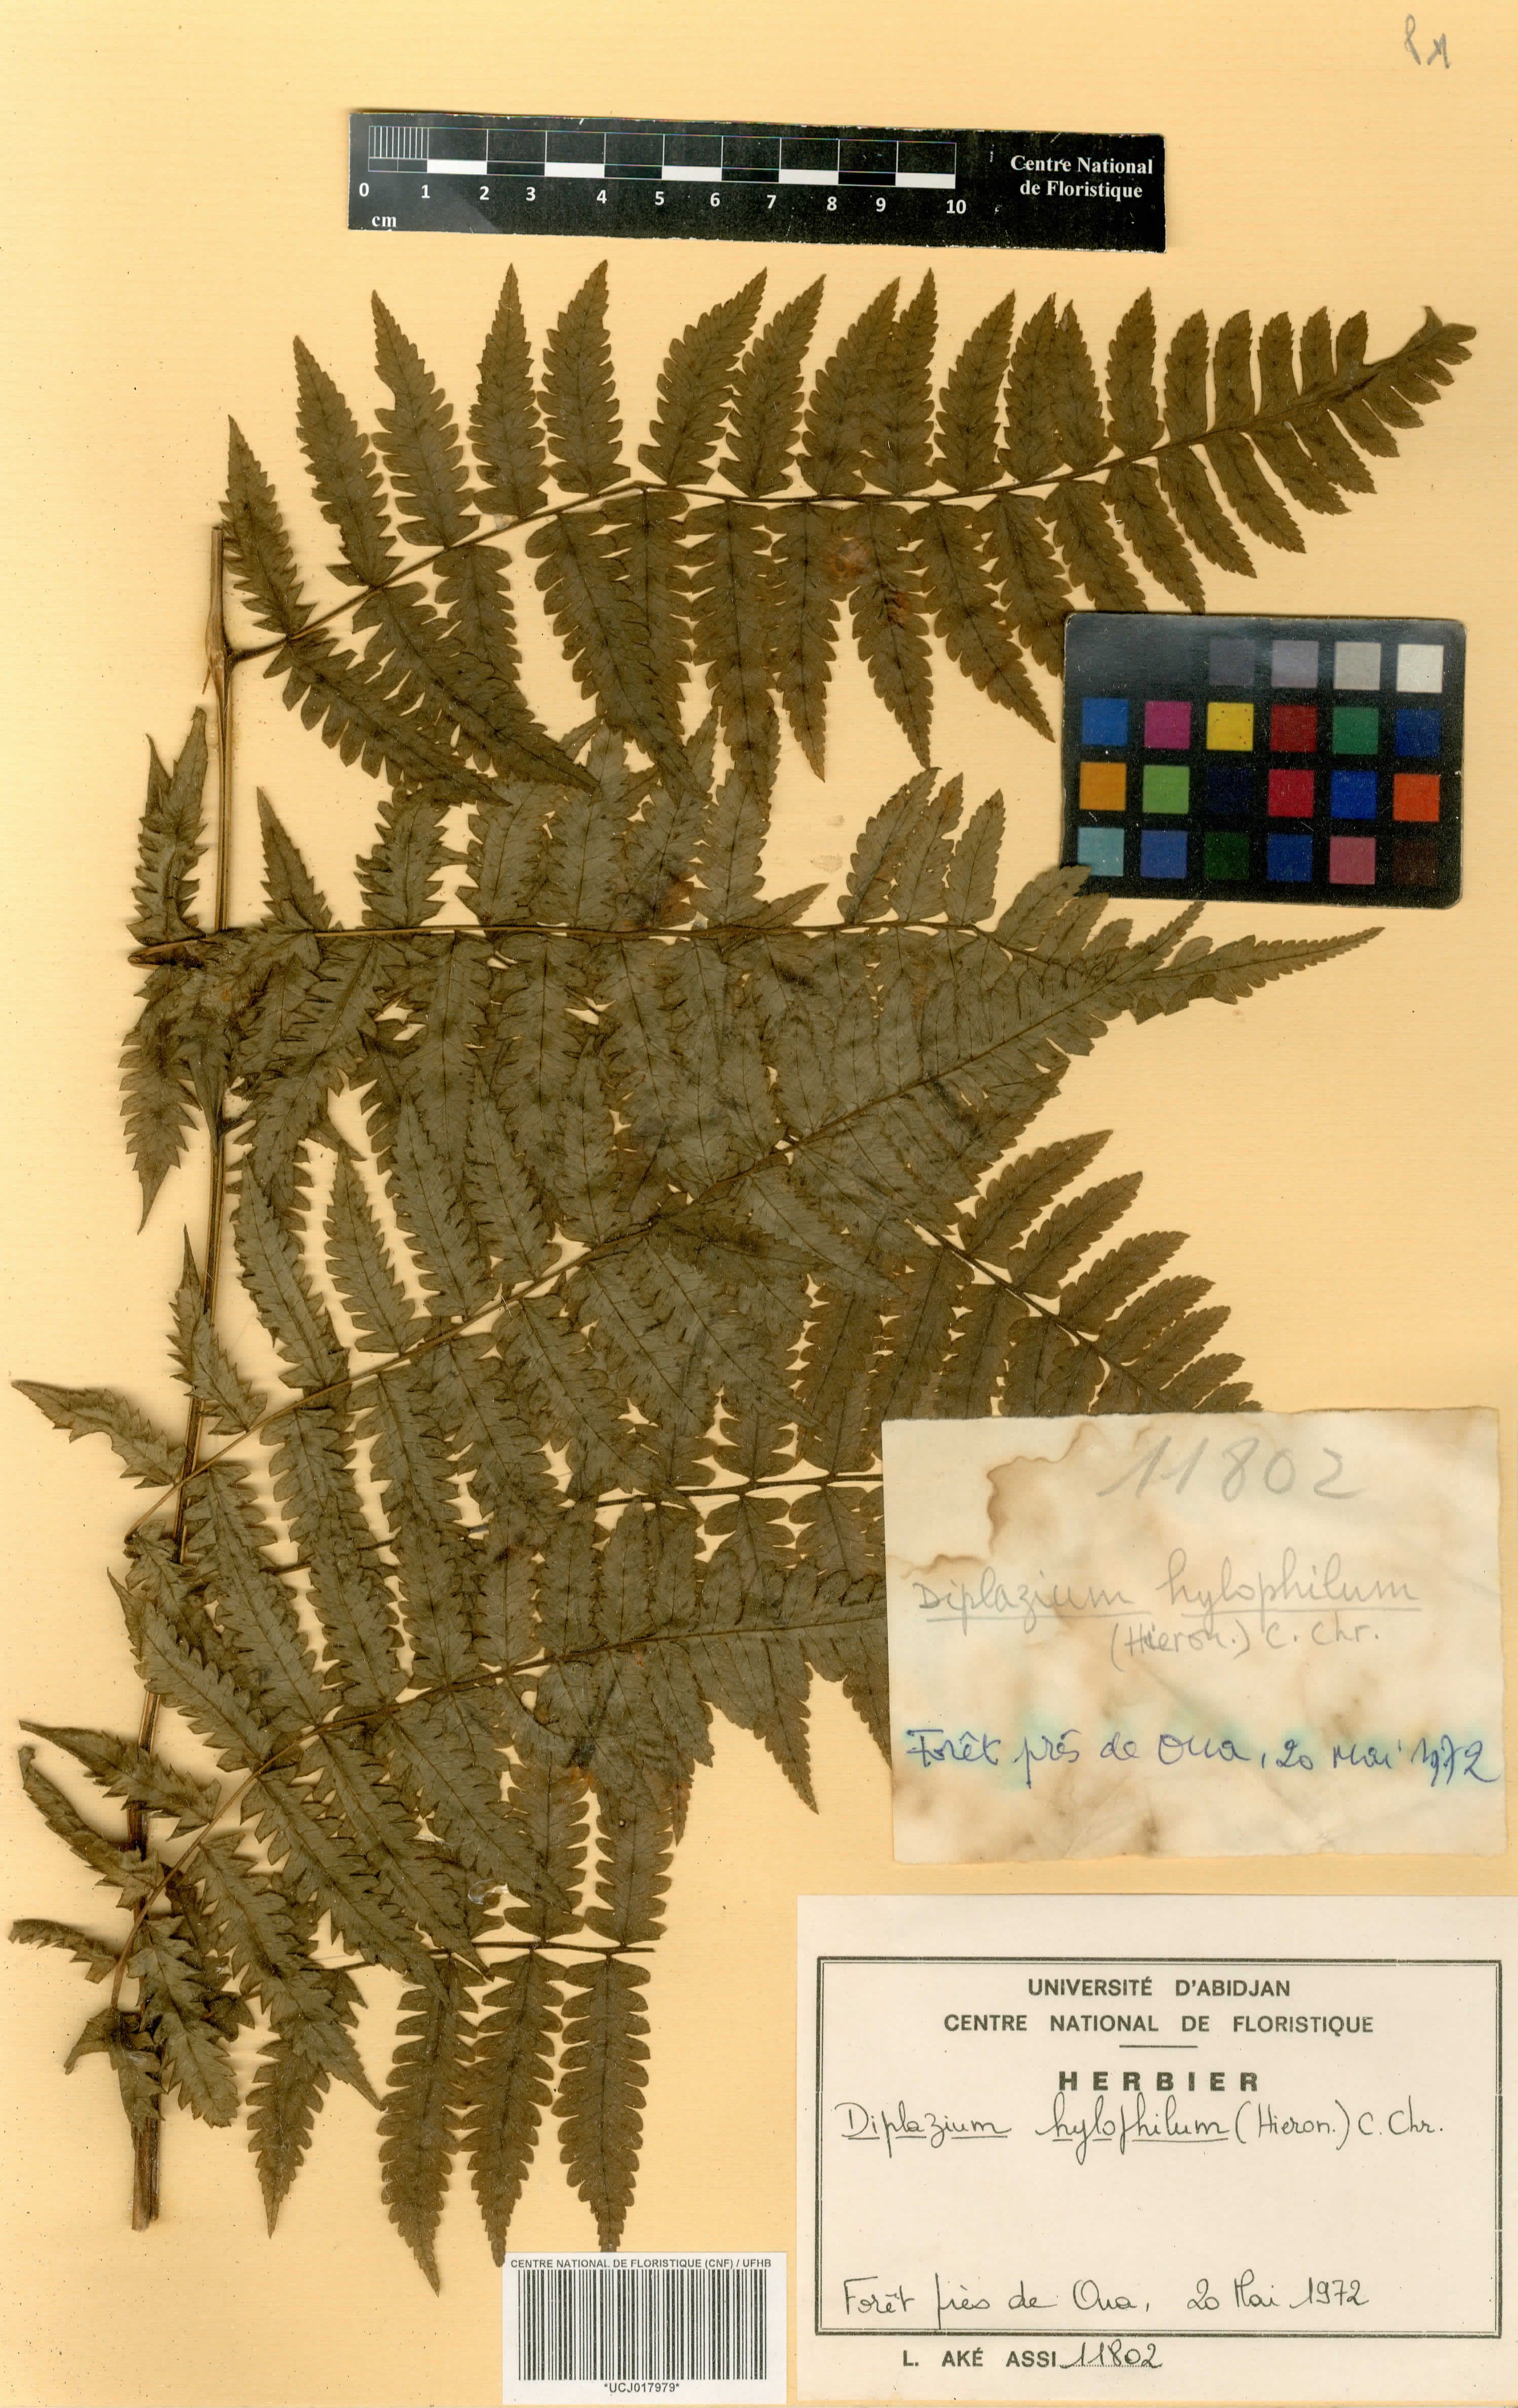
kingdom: Plantae
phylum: Tracheophyta
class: Polypodiopsida
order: Polypodiales
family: Athyriaceae
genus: Diplazium
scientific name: Diplazium nemorale
